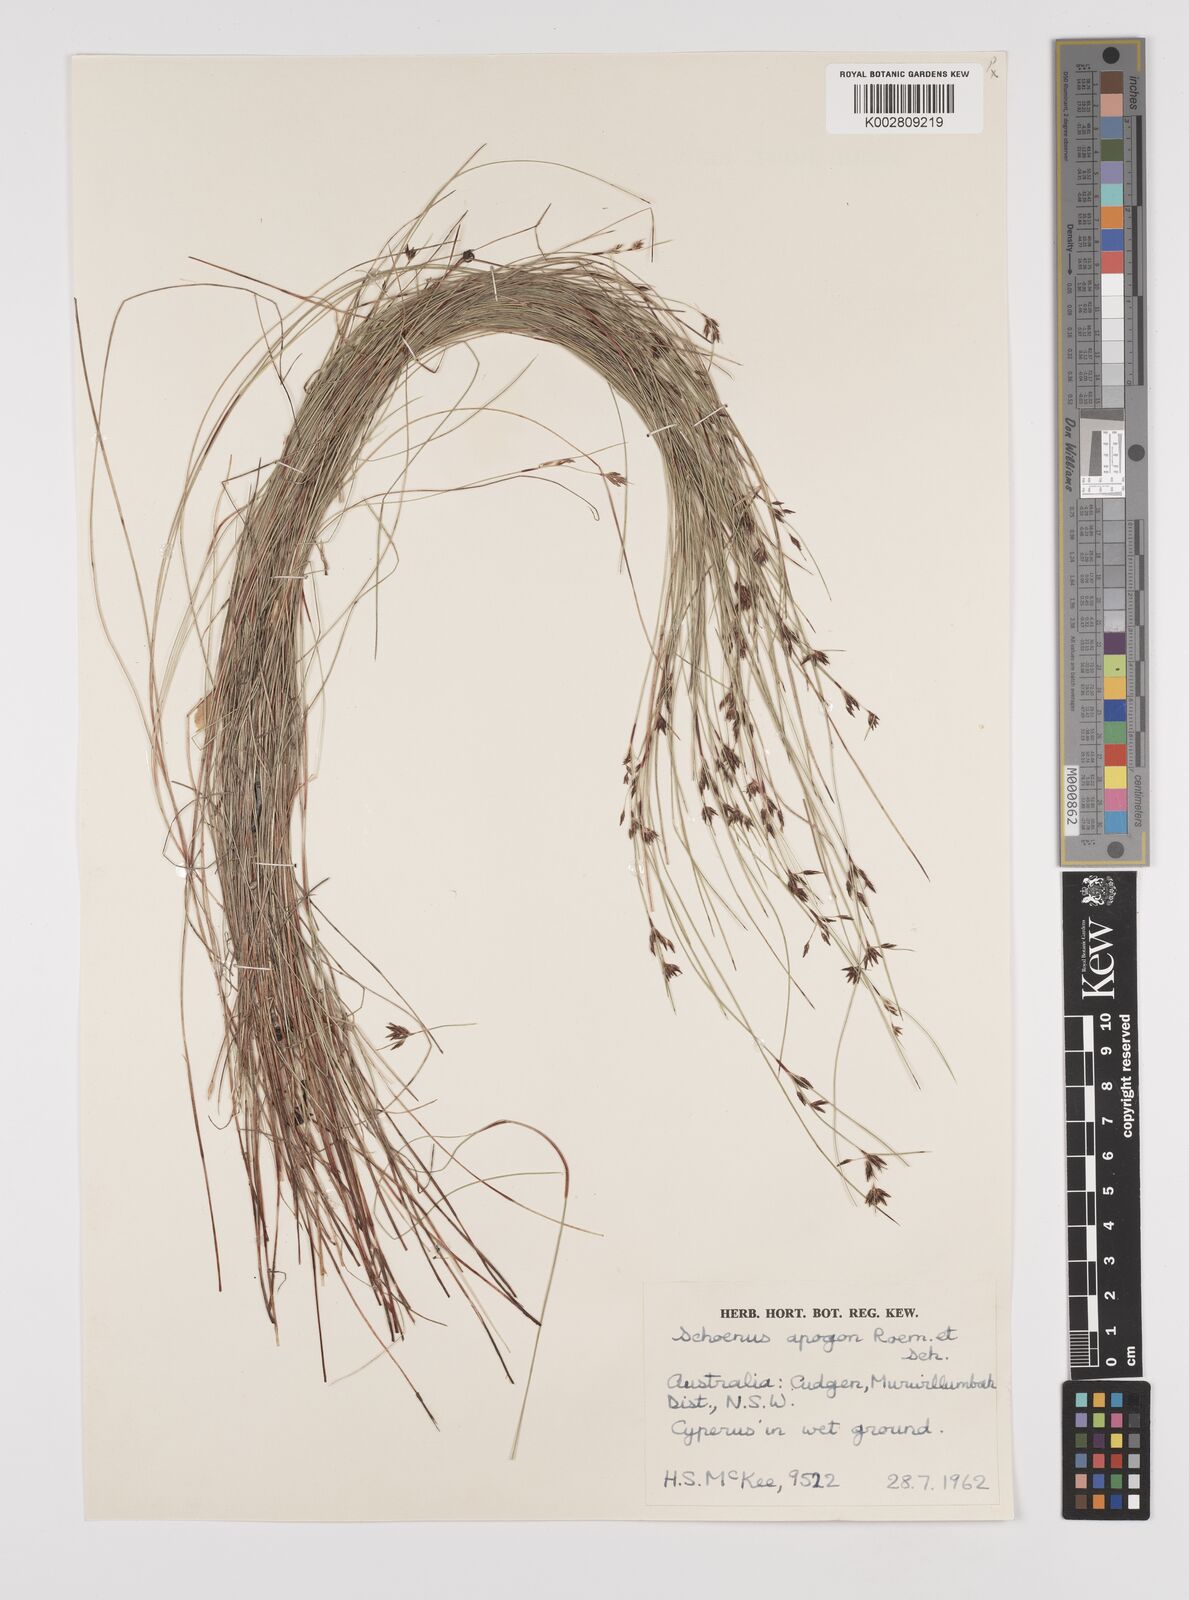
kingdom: Plantae
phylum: Tracheophyta
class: Liliopsida
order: Poales
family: Cyperaceae
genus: Schoenus
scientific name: Schoenus apogon
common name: Smooth bogrush
